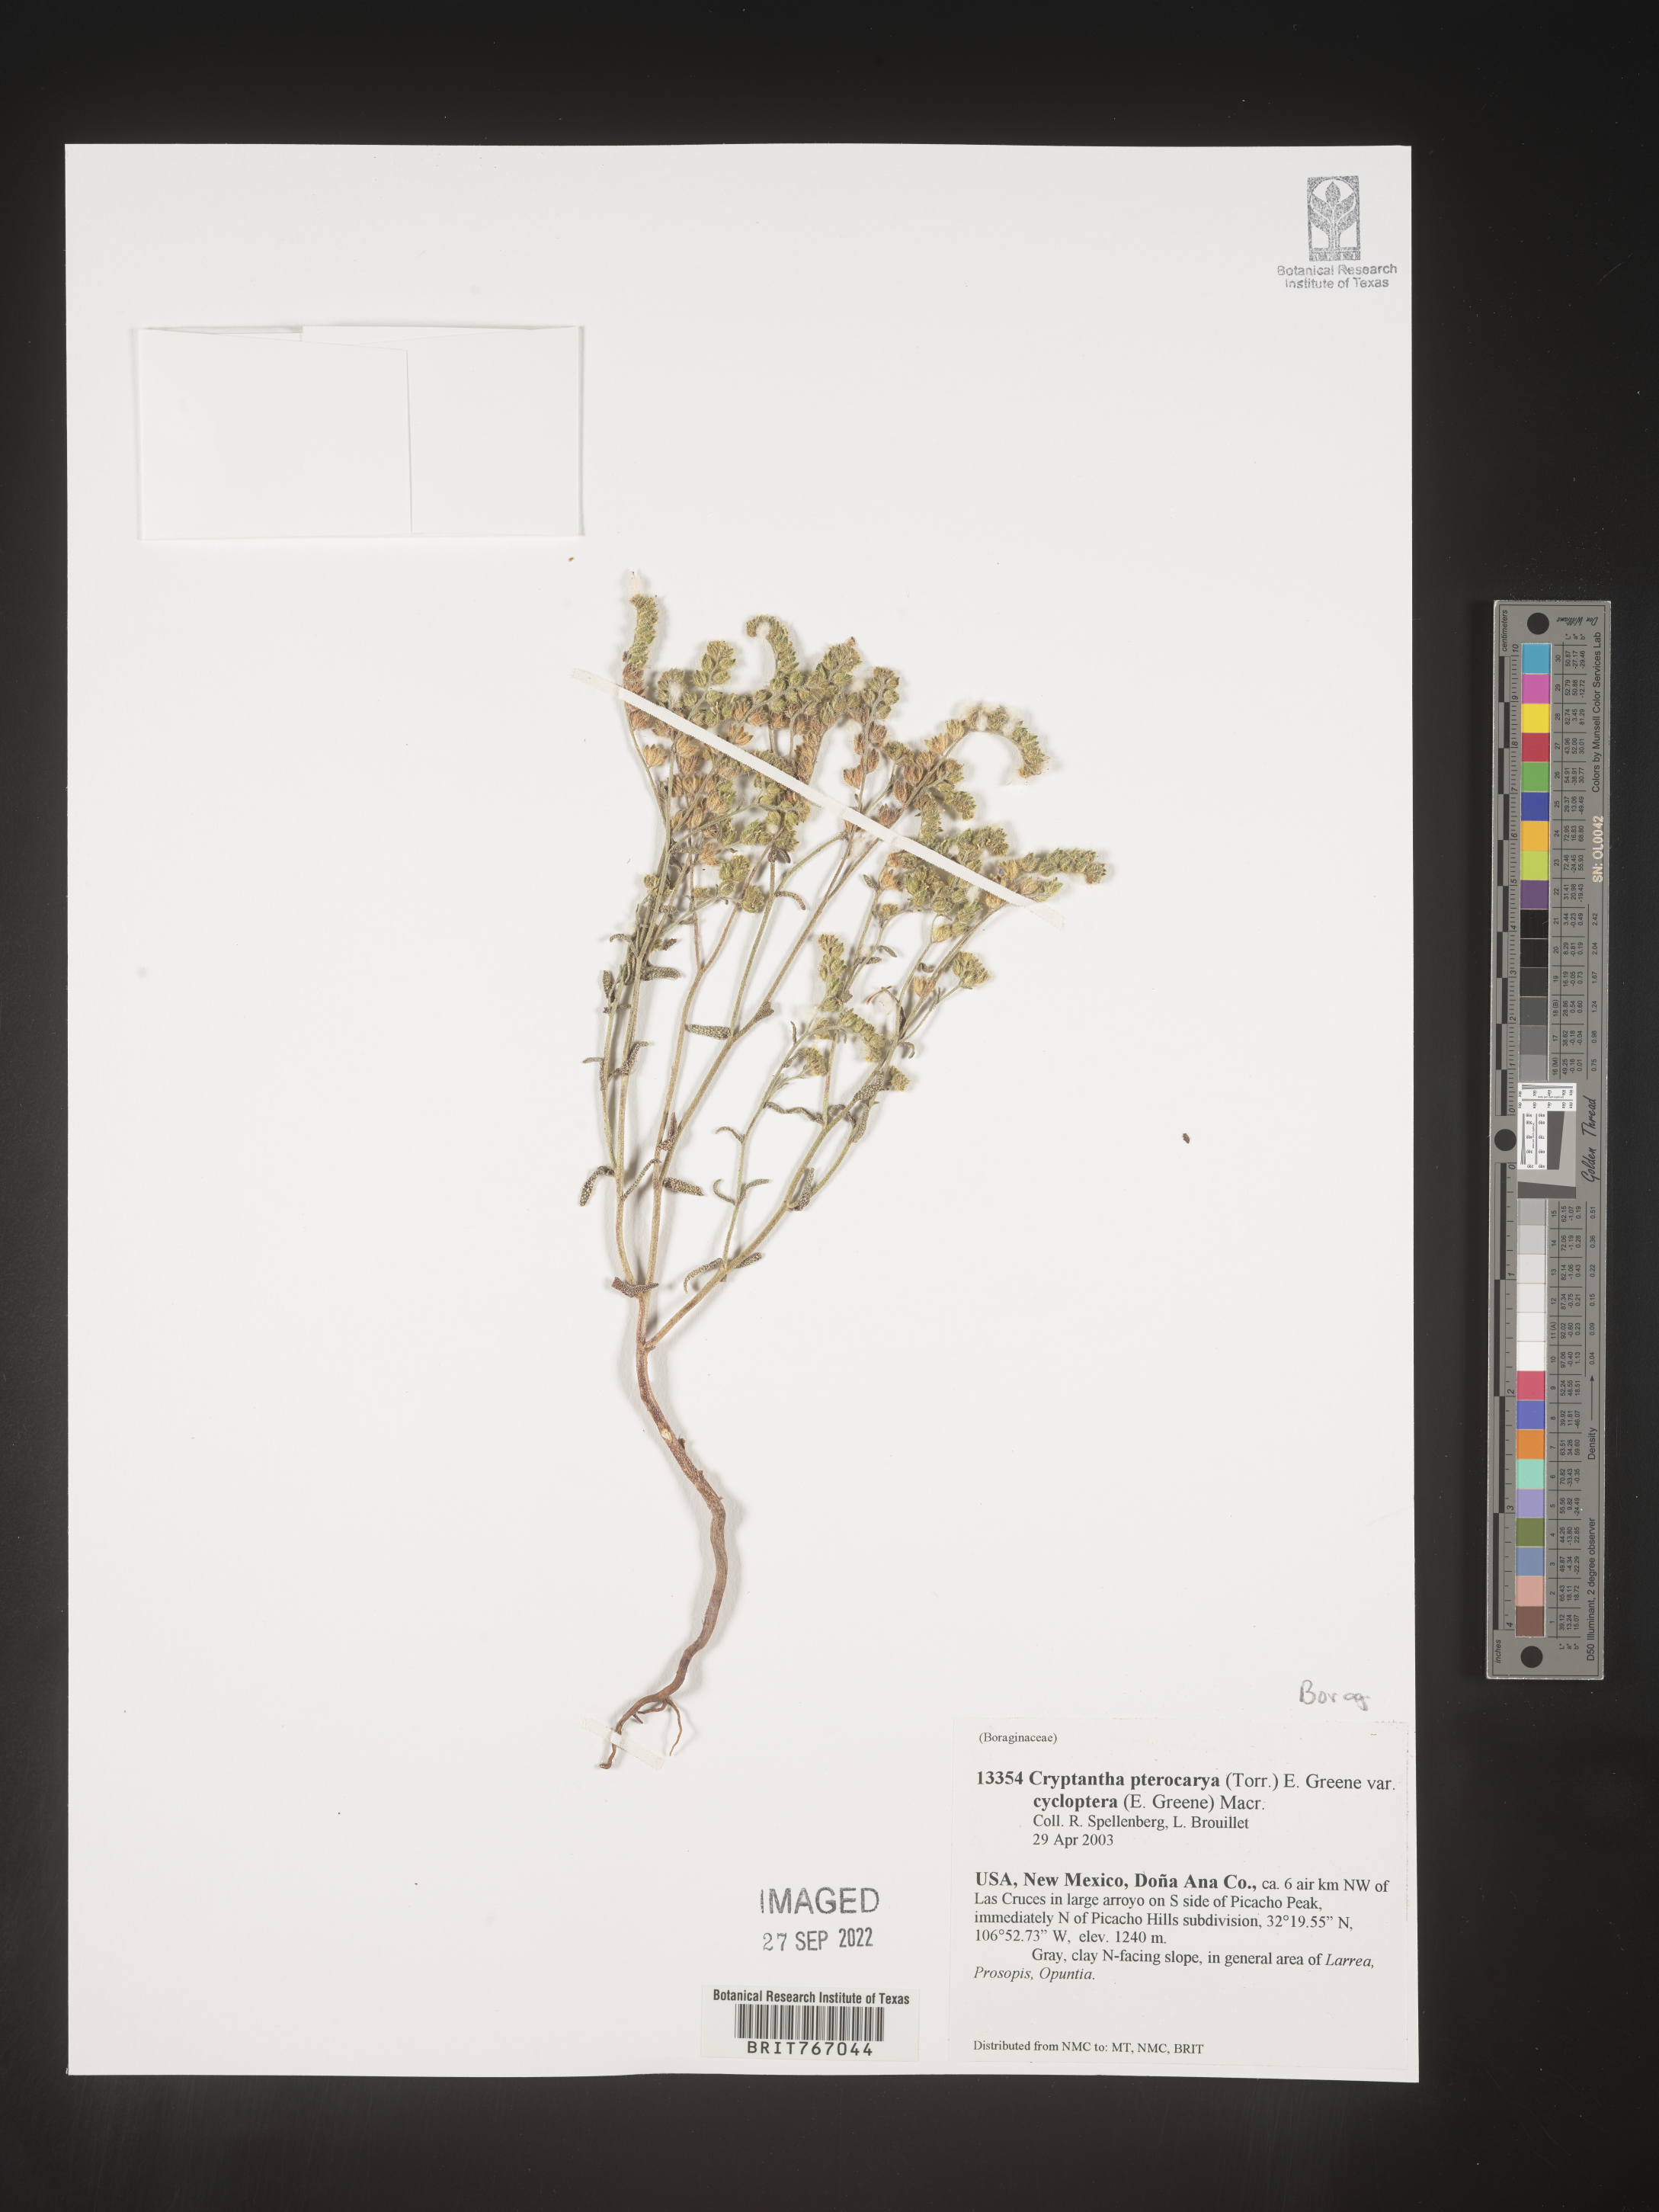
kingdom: Plantae
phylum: Tracheophyta
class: Magnoliopsida
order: Boraginales
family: Boraginaceae
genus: Cryptantha
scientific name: Cryptantha pterocarya
